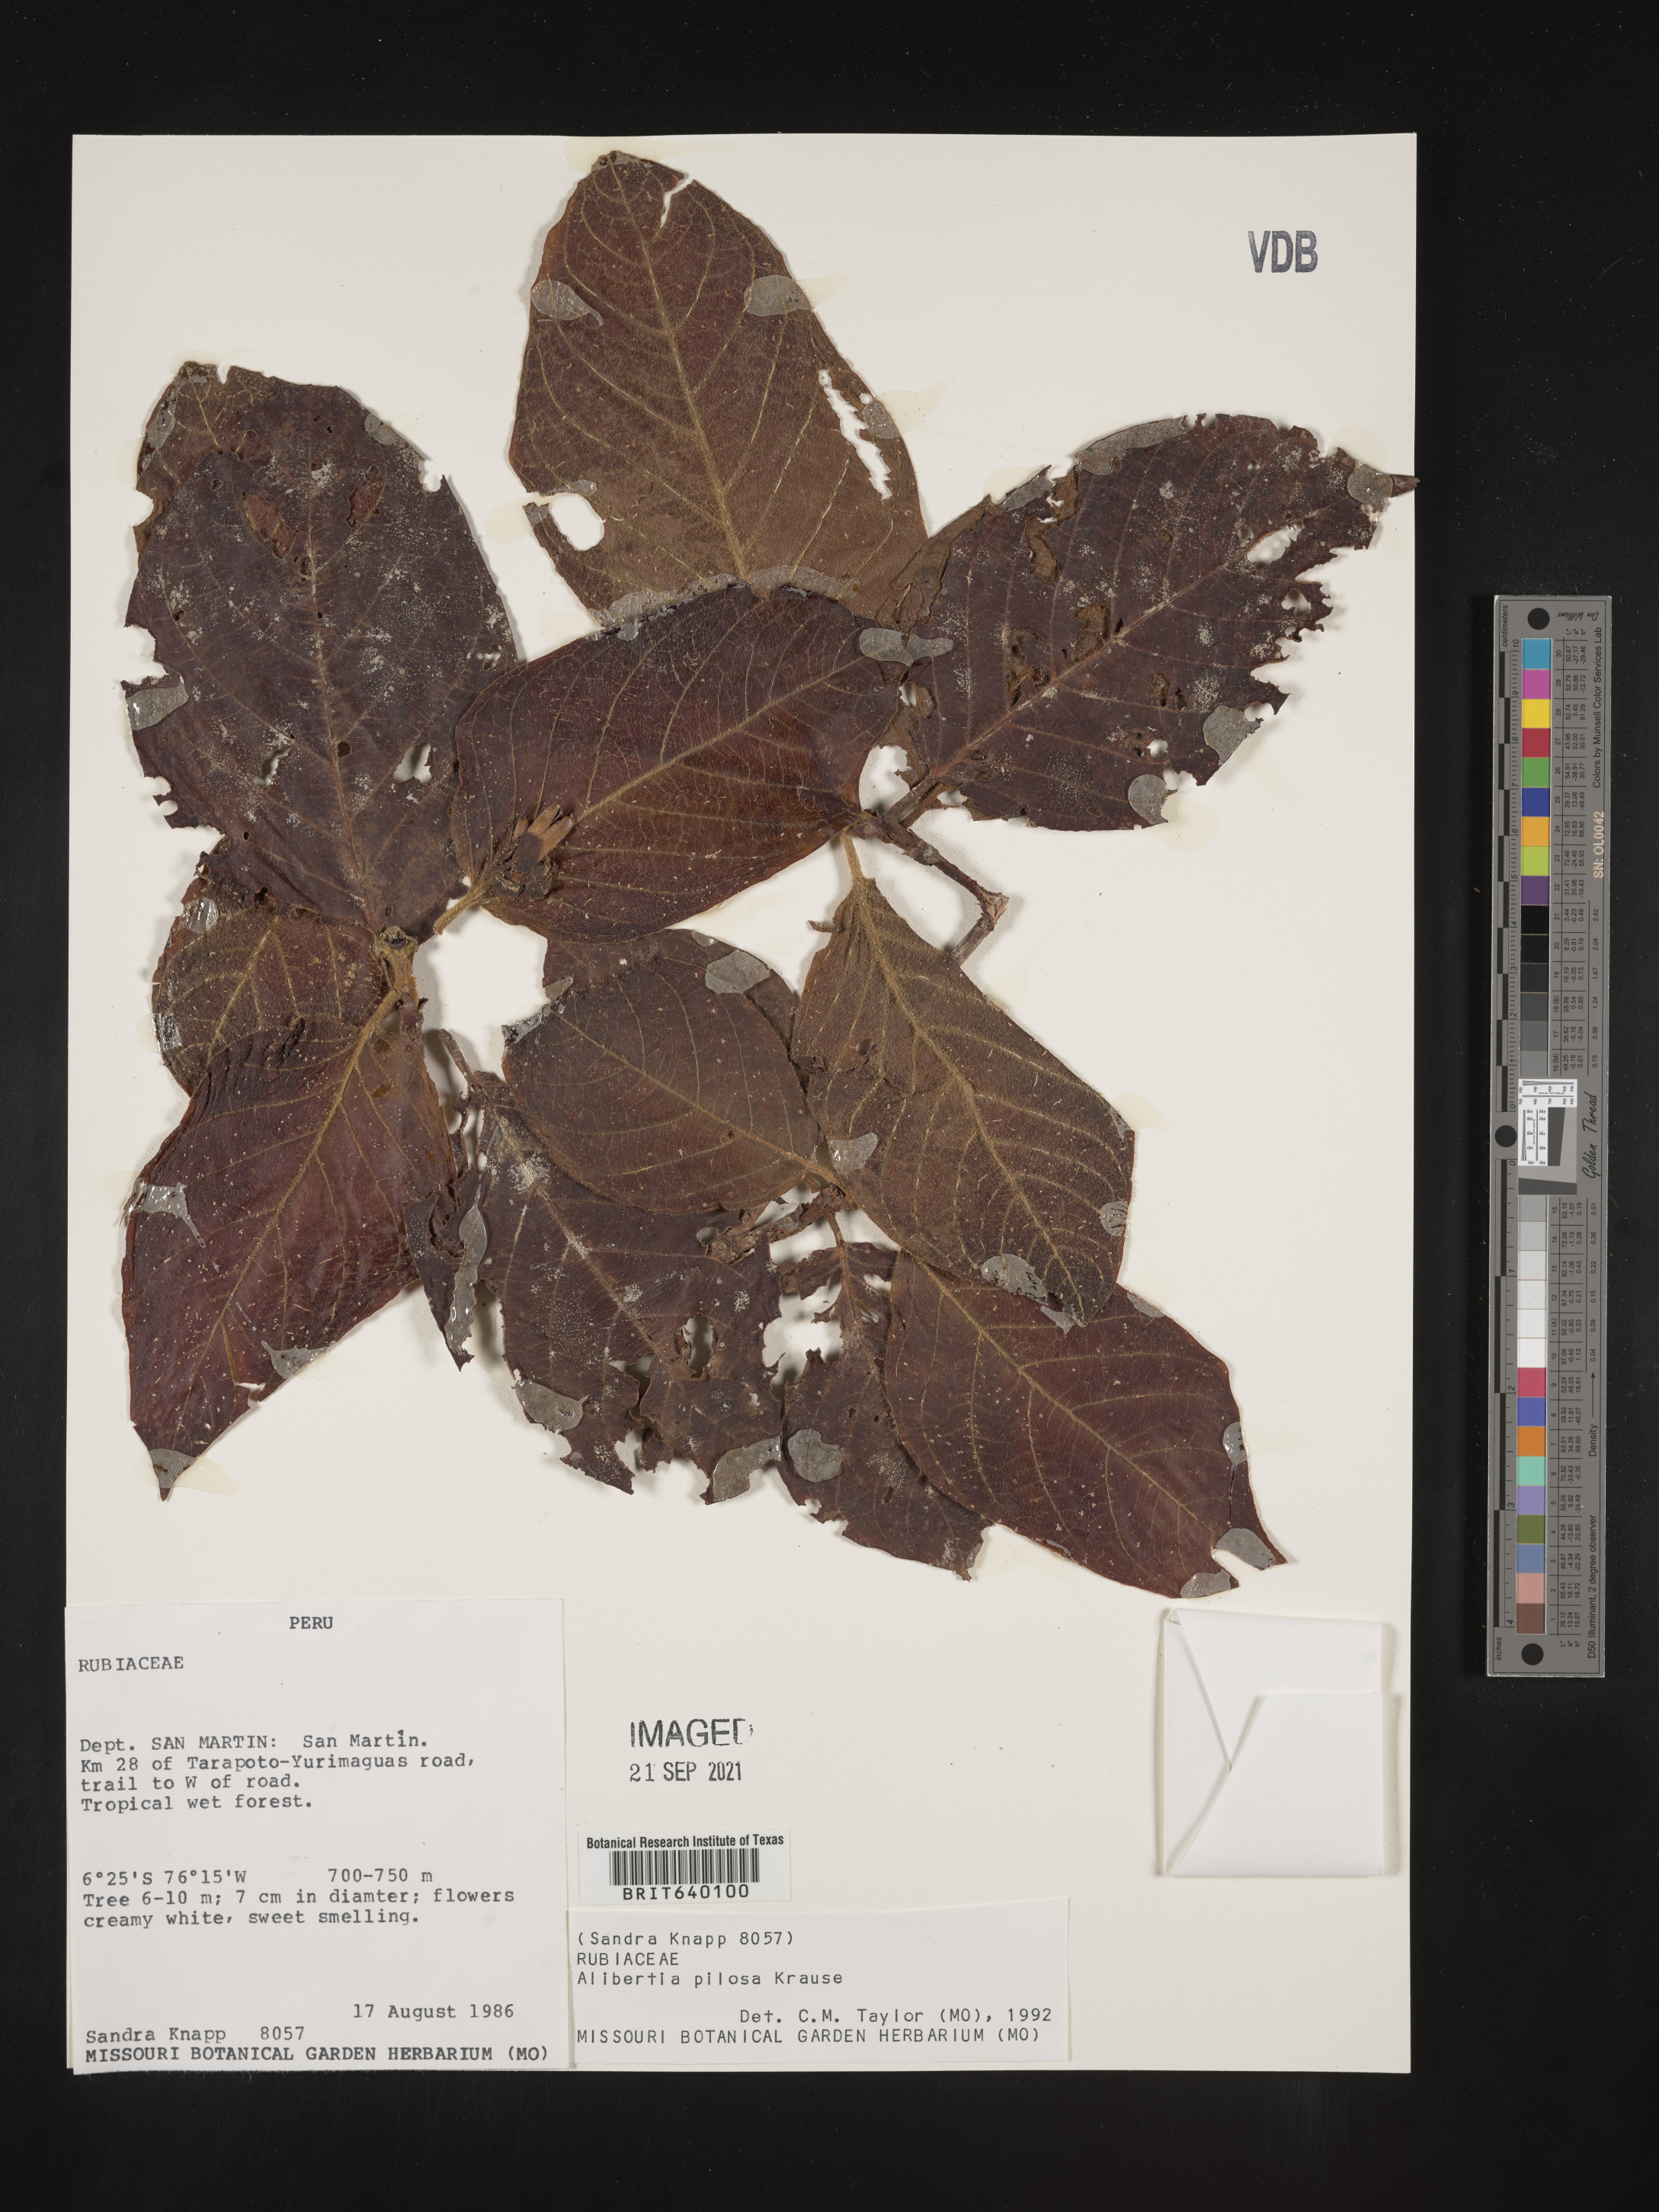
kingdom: Plantae
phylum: Tracheophyta
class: Magnoliopsida
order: Gentianales
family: Rubiaceae
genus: Alibertia
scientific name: Alibertia
